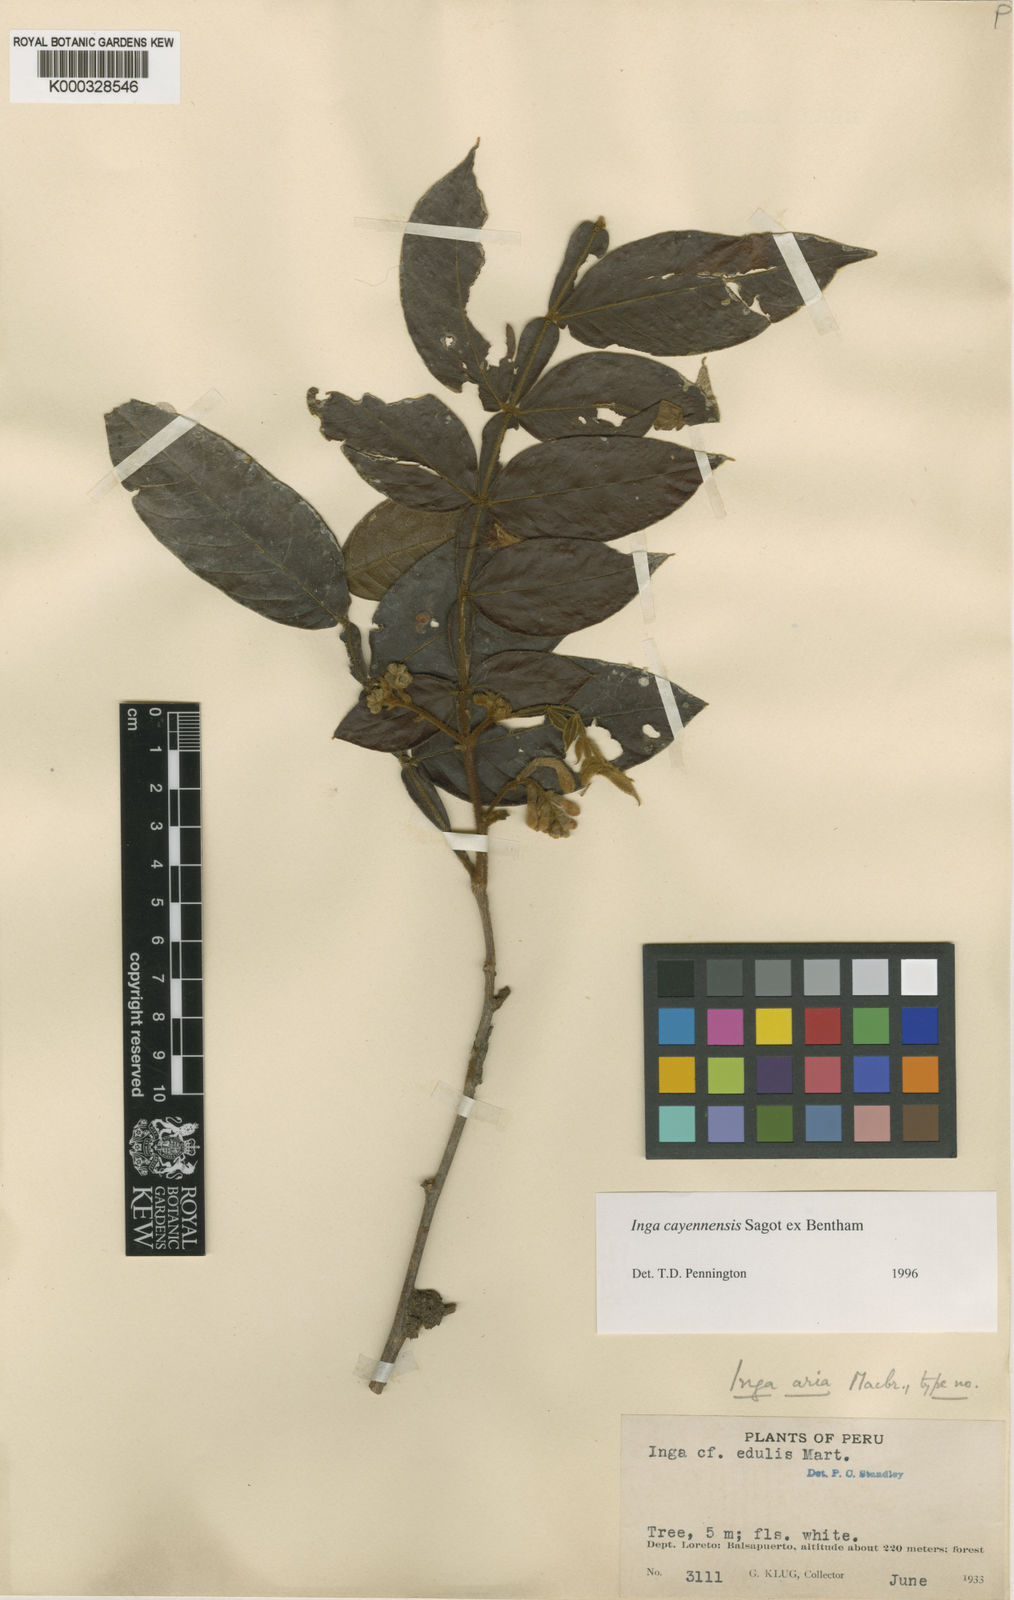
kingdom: Plantae
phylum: Tracheophyta
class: Magnoliopsida
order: Fabales
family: Fabaceae
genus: Inga
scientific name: Inga cayennensis
